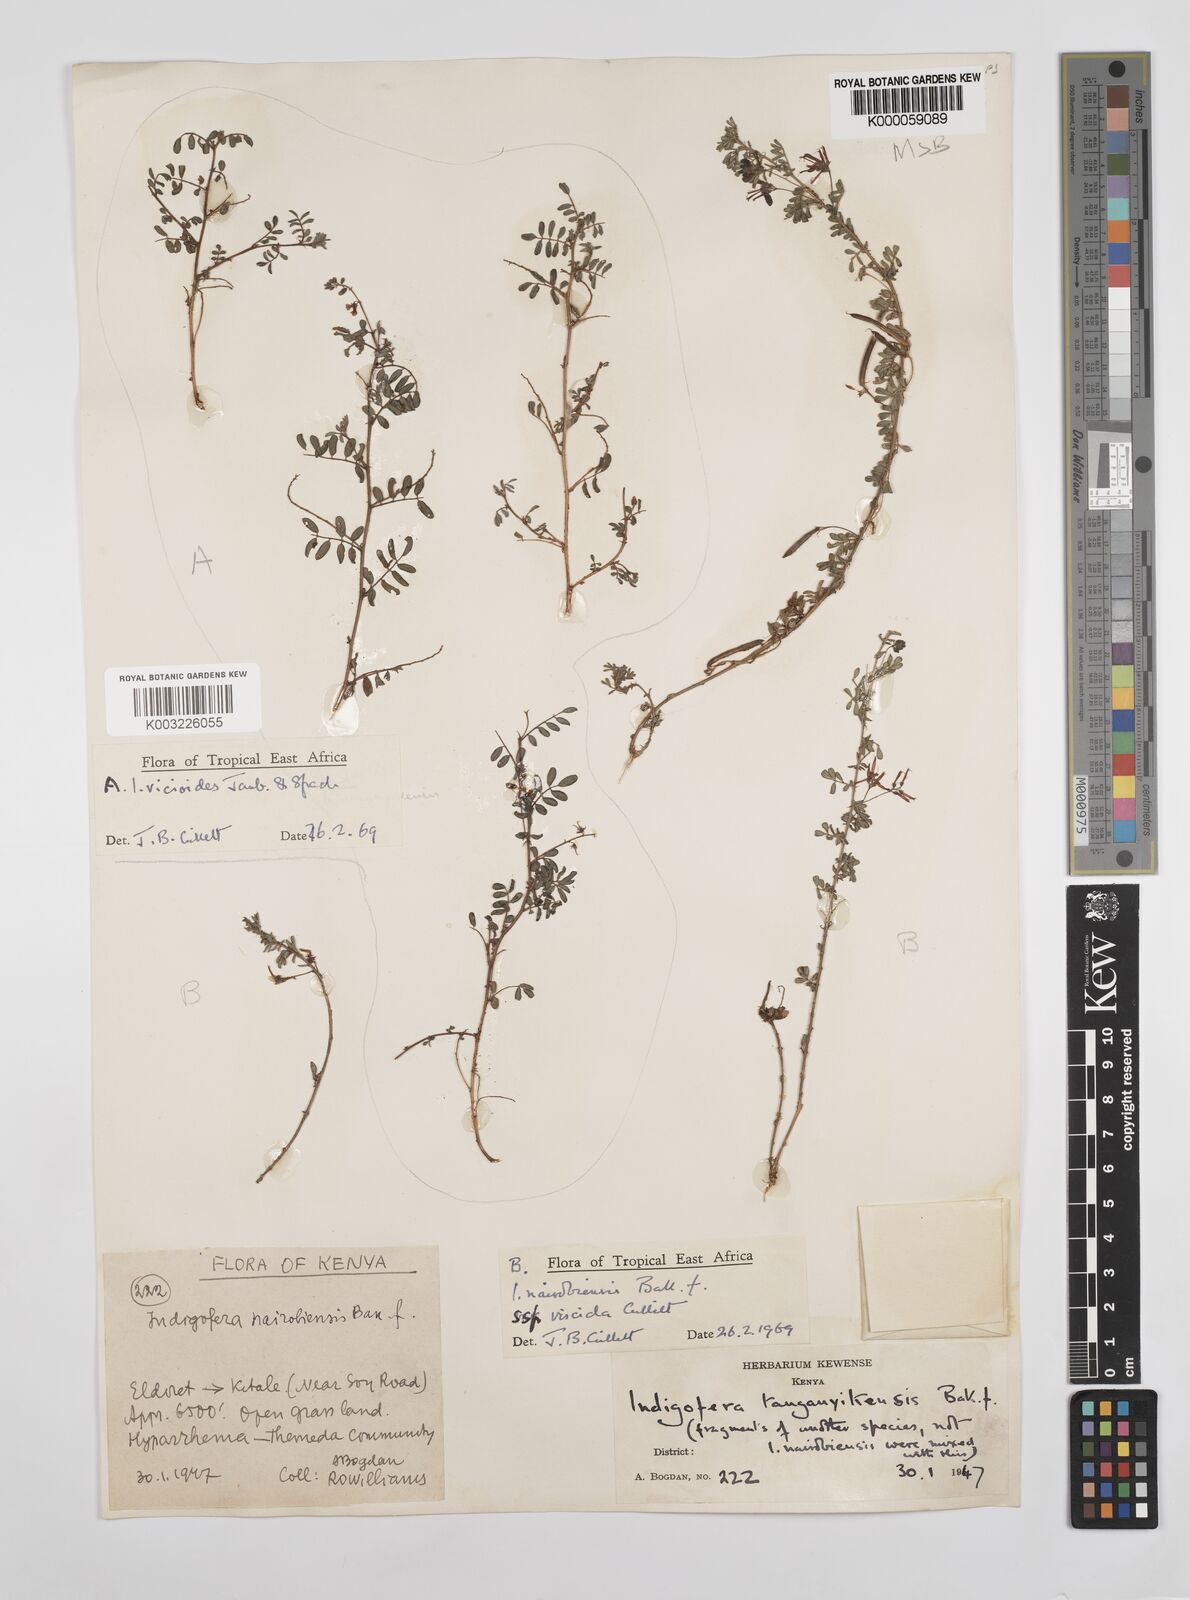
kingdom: Plantae
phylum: Tracheophyta
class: Magnoliopsida
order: Fabales
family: Fabaceae
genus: Indigofera
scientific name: Indigofera nairobiensis
